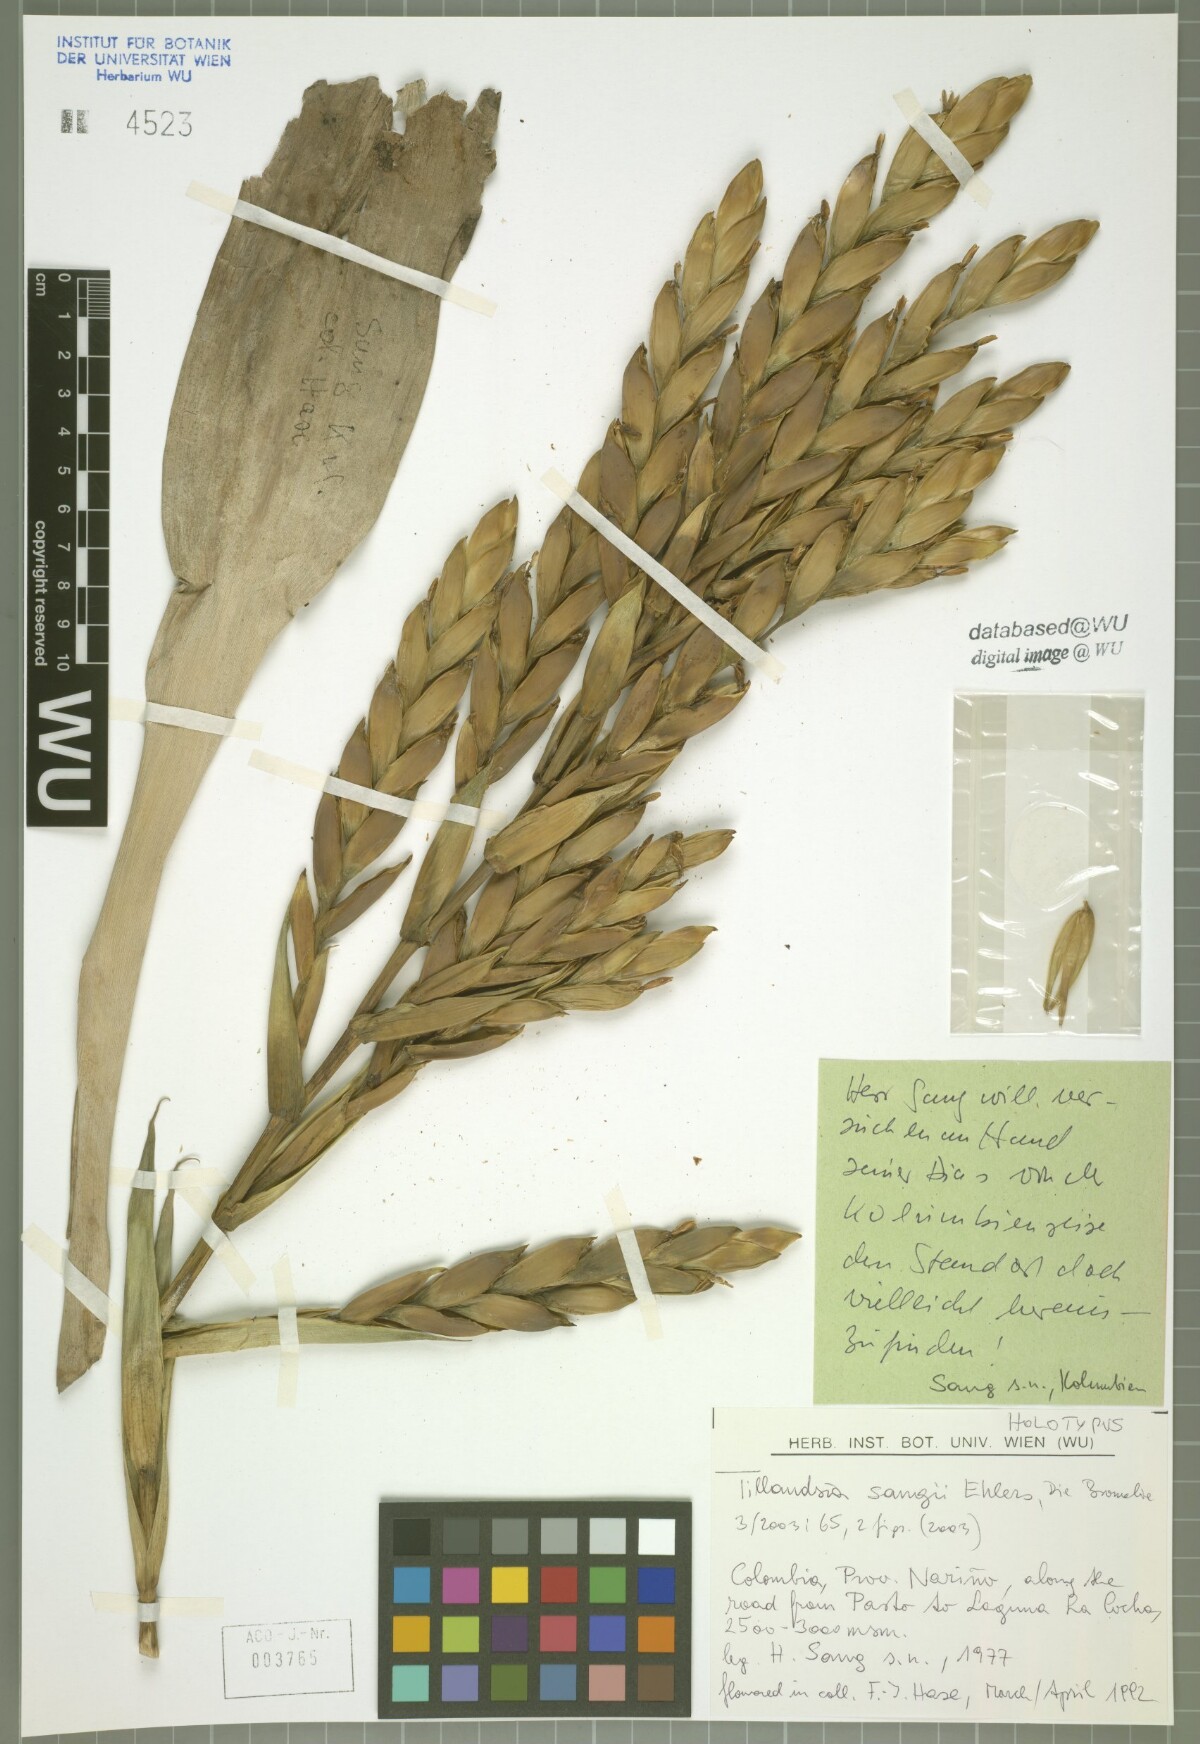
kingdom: Plantae
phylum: Tracheophyta
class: Liliopsida
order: Poales
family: Bromeliaceae
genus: Tillandsia
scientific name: Tillandsia sangii
